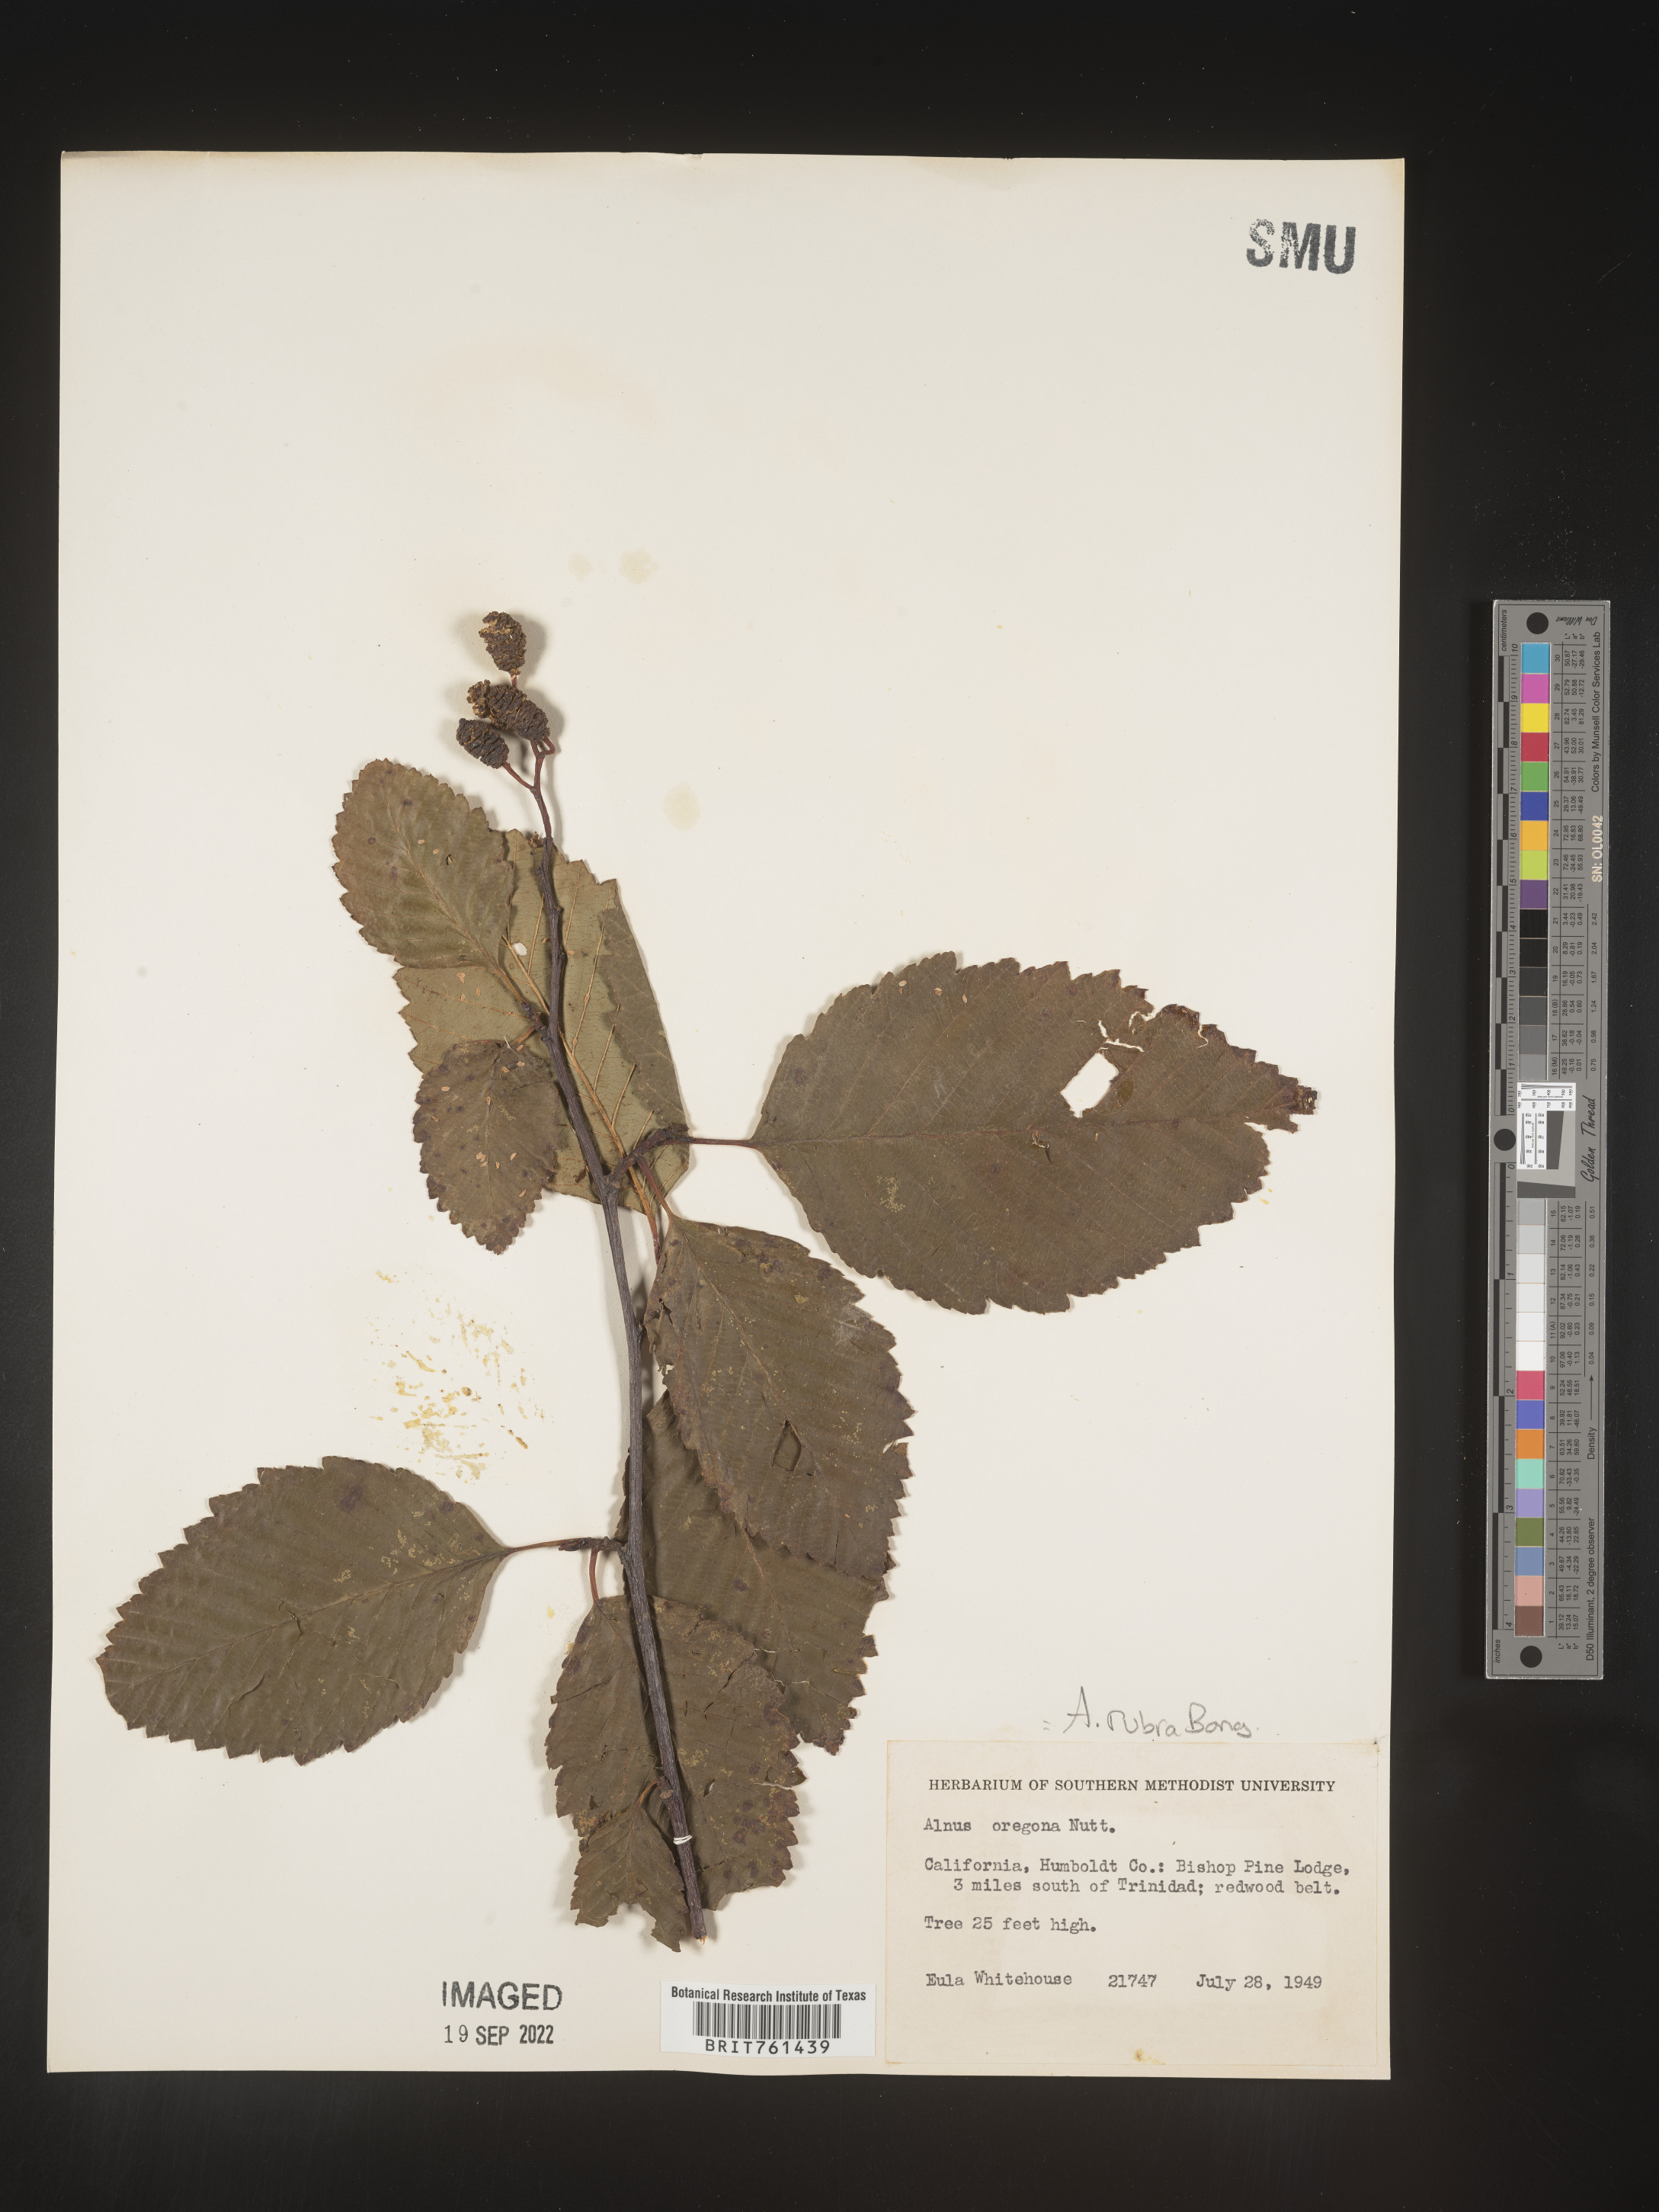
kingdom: Plantae
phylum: Tracheophyta
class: Magnoliopsida
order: Fagales
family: Betulaceae
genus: Alnus
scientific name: Alnus rubra
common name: Red alder
